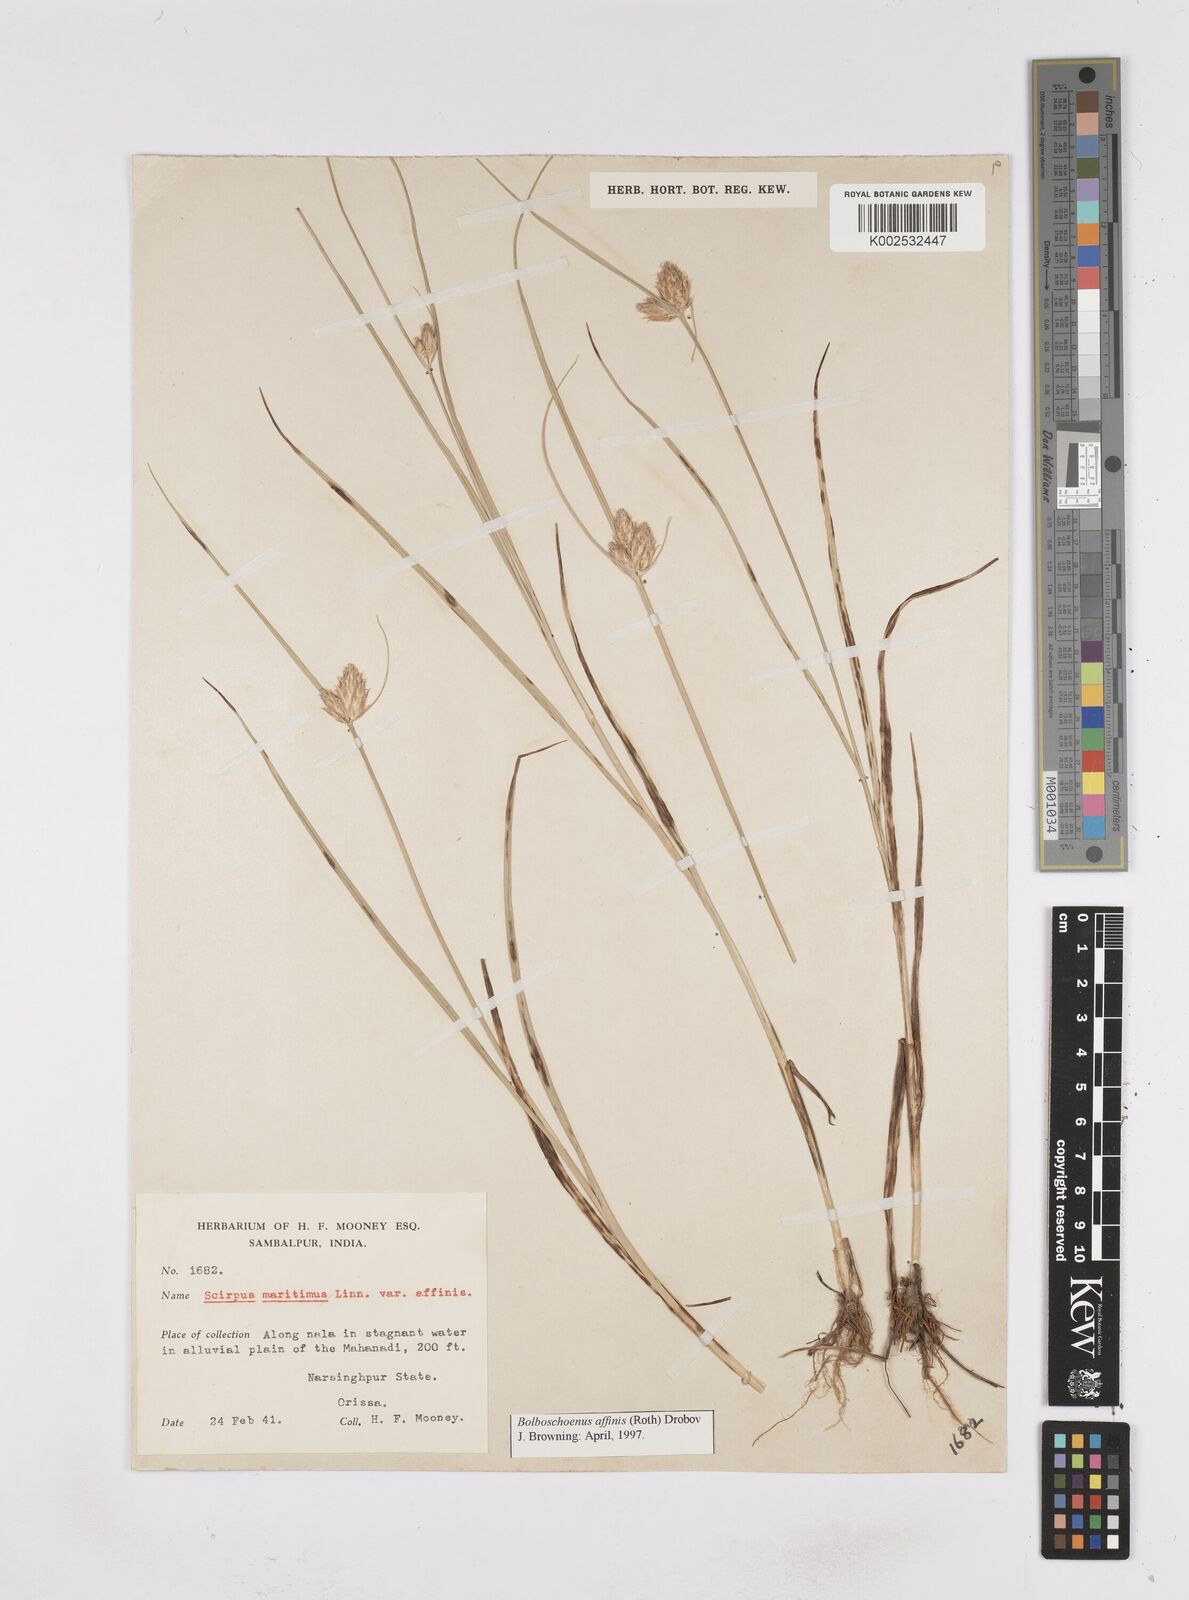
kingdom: Plantae
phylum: Tracheophyta
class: Liliopsida
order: Poales
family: Cyperaceae
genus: Bolboschoenus
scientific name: Bolboschoenus maritimus
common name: Sea club-rush
